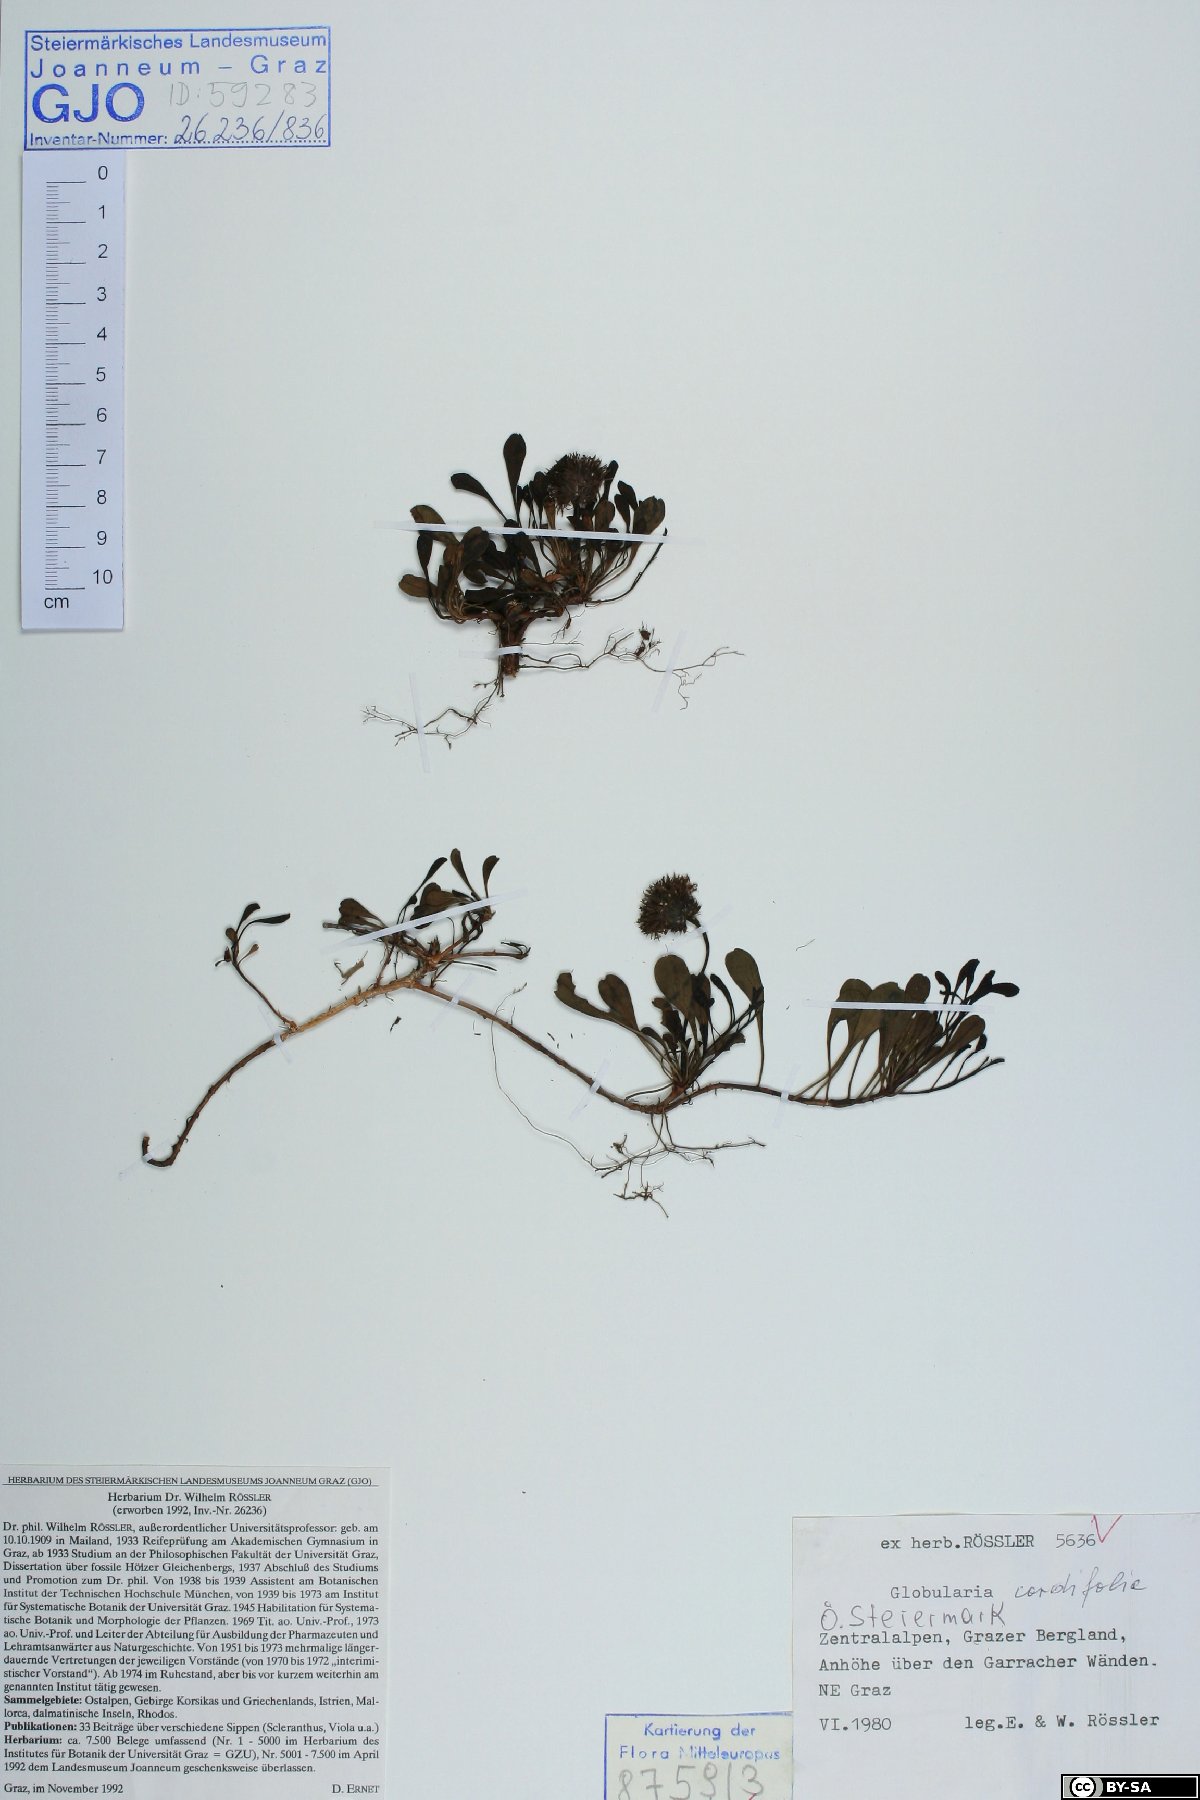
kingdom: Plantae
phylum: Tracheophyta
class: Magnoliopsida
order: Lamiales
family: Plantaginaceae
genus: Globularia
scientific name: Globularia cordifolia
